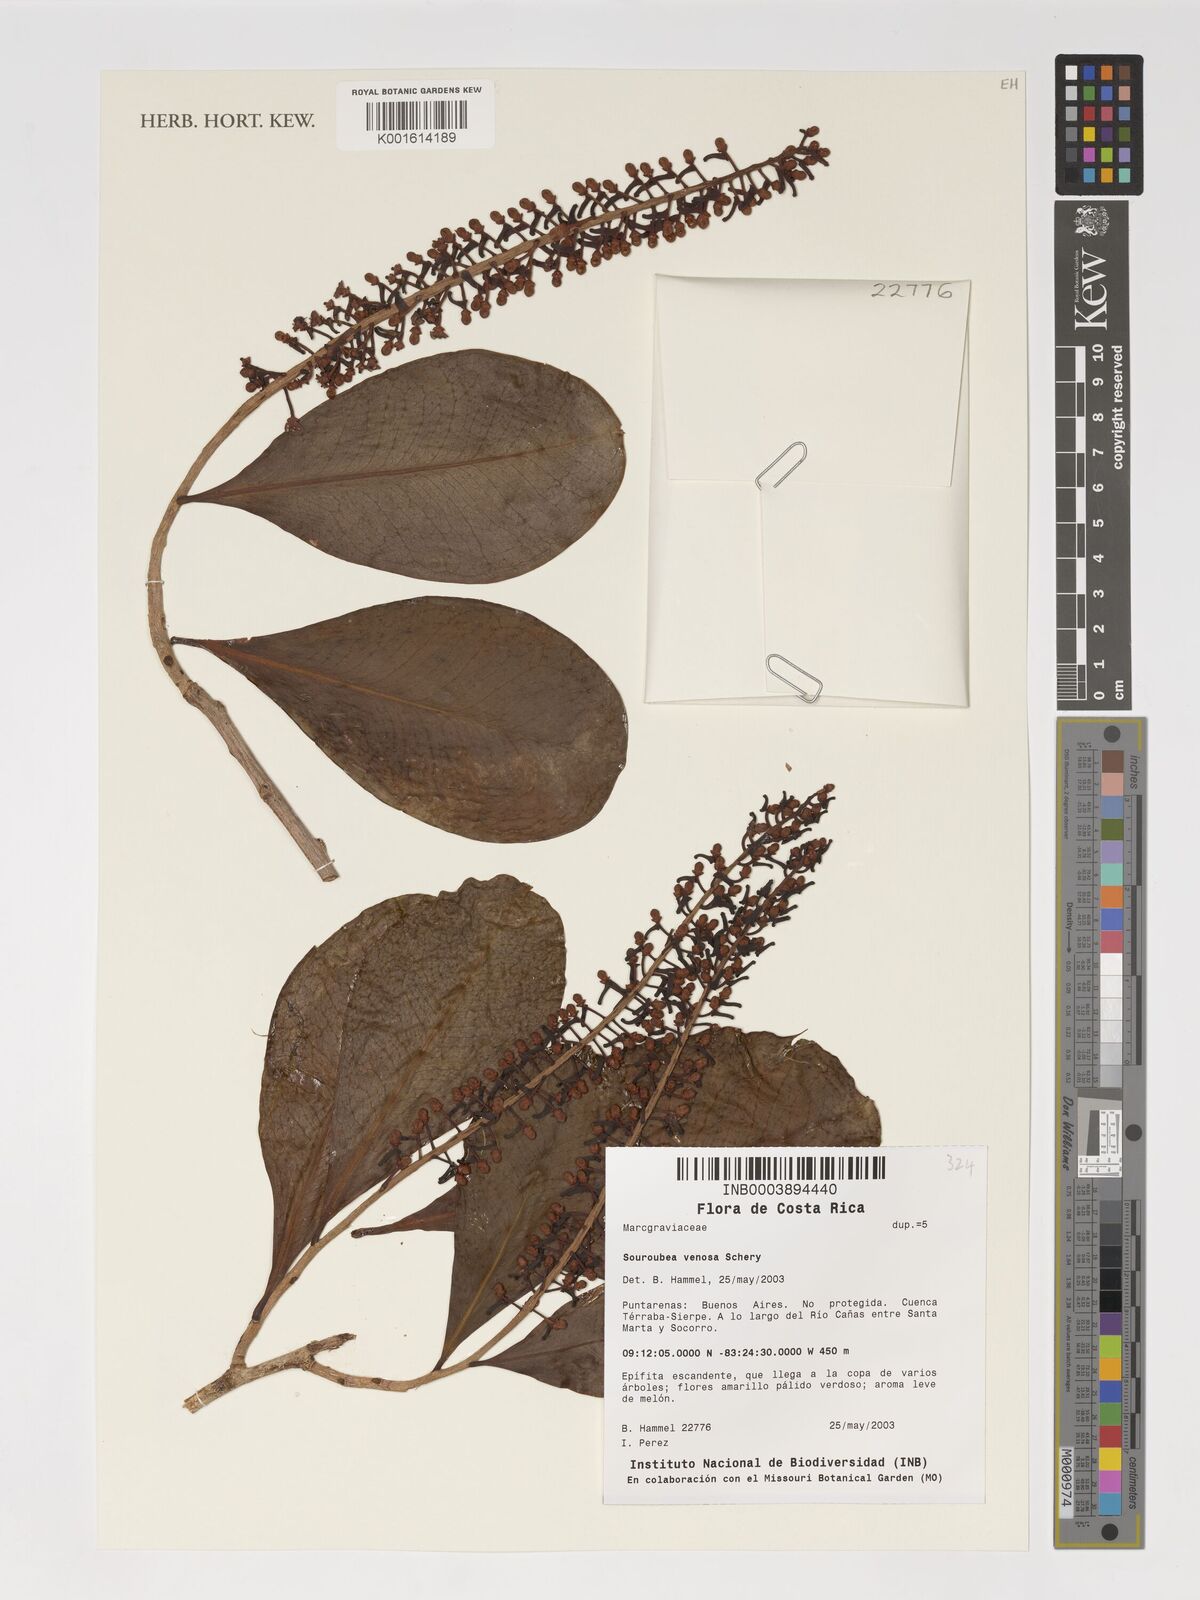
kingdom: Plantae
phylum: Tracheophyta
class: Magnoliopsida
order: Ericales
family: Marcgraviaceae
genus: Souroubea
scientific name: Souroubea venosa
